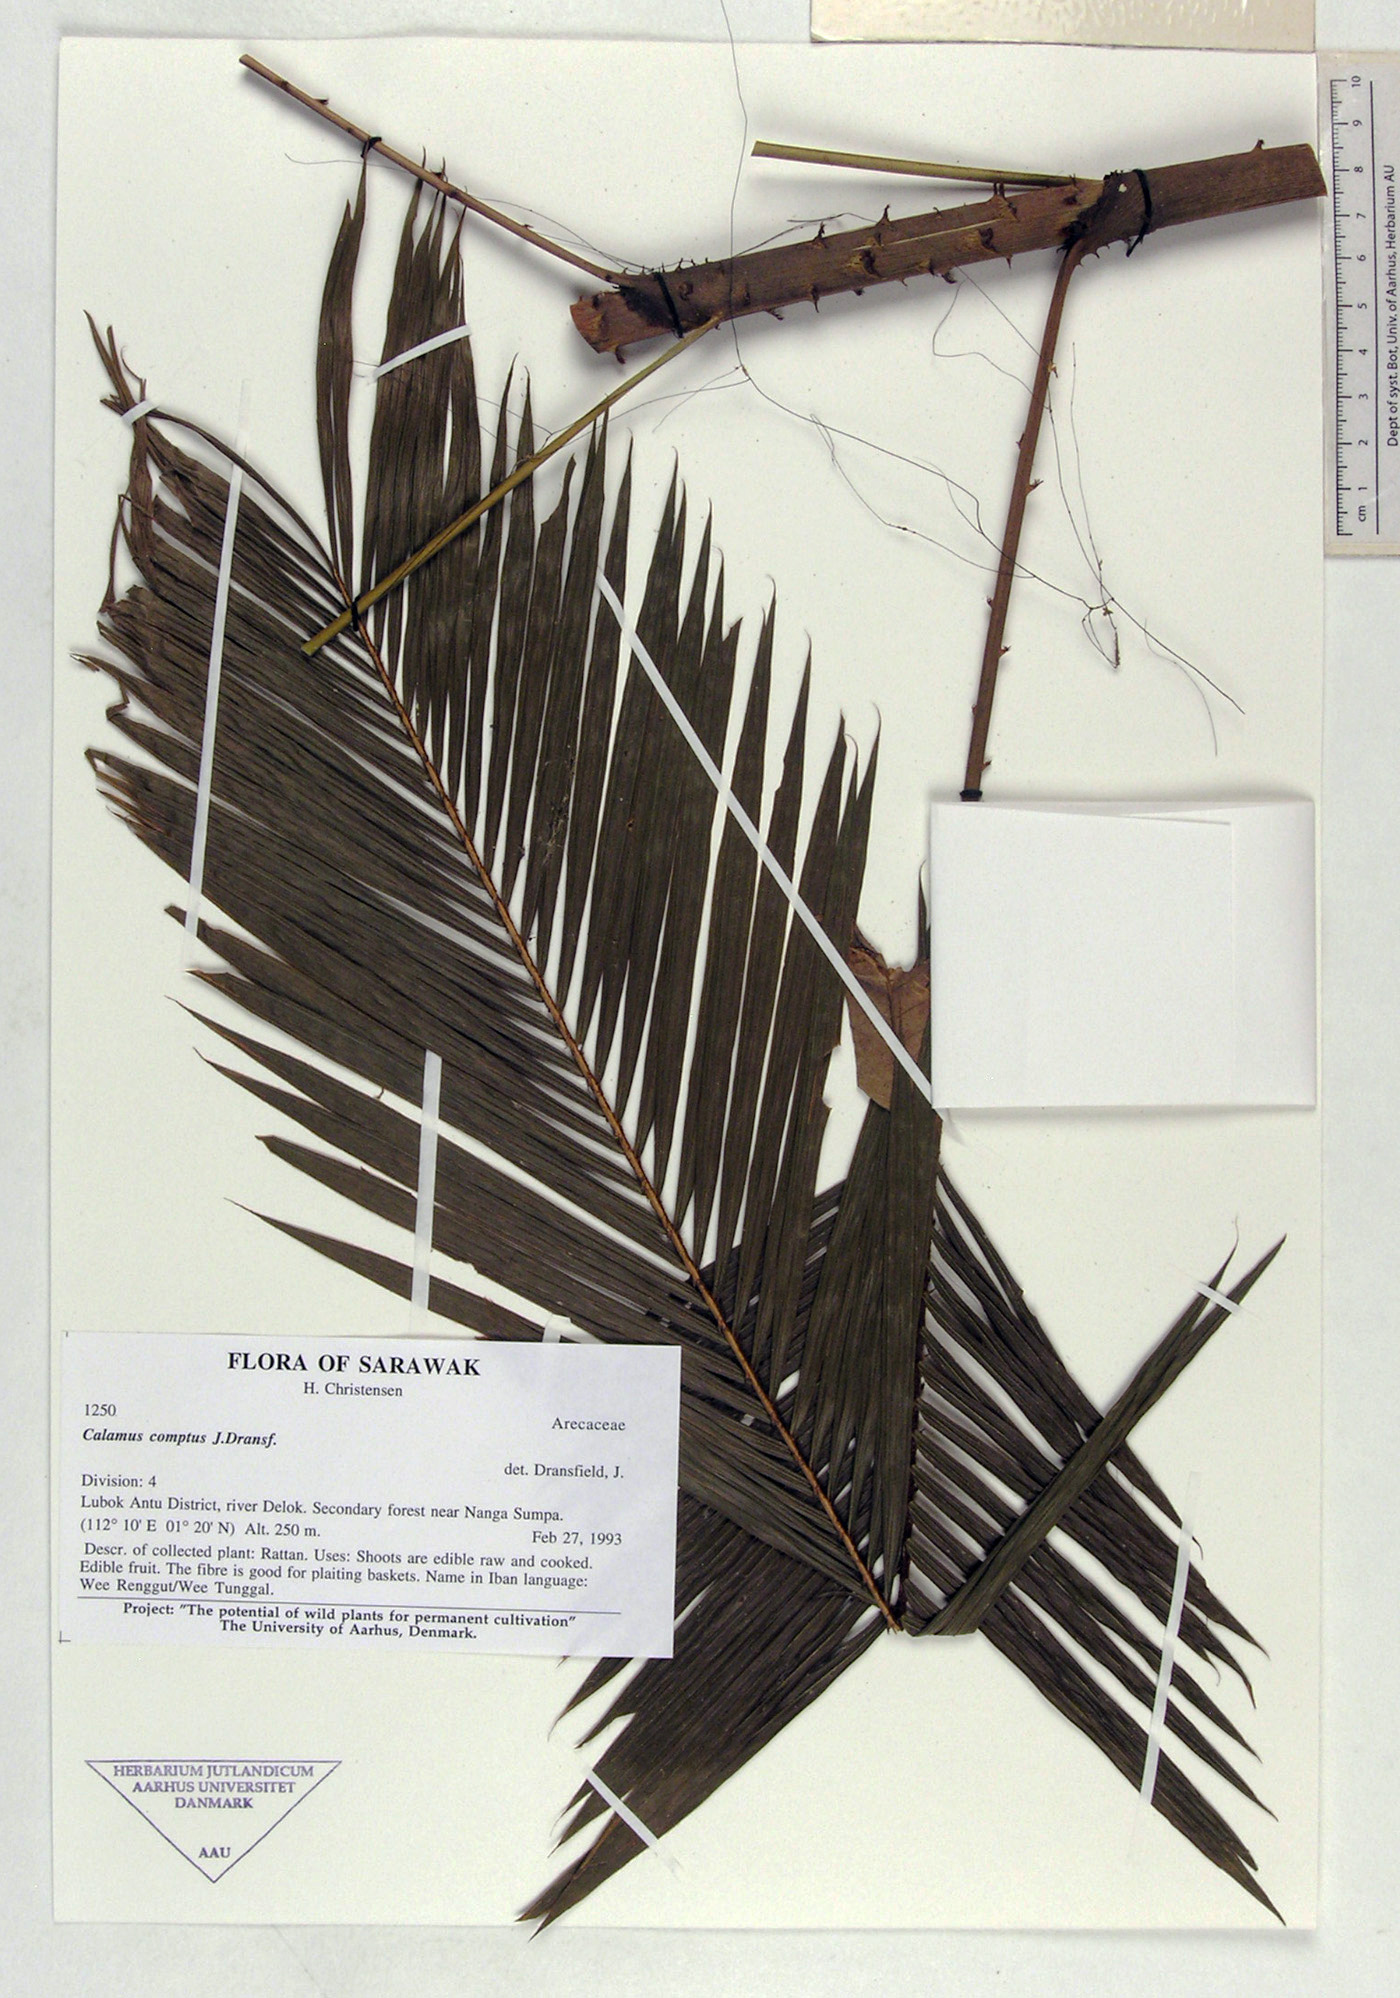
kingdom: Plantae
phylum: Tracheophyta
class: Liliopsida
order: Arecales
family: Arecaceae
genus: Calamus
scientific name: Calamus comptus
